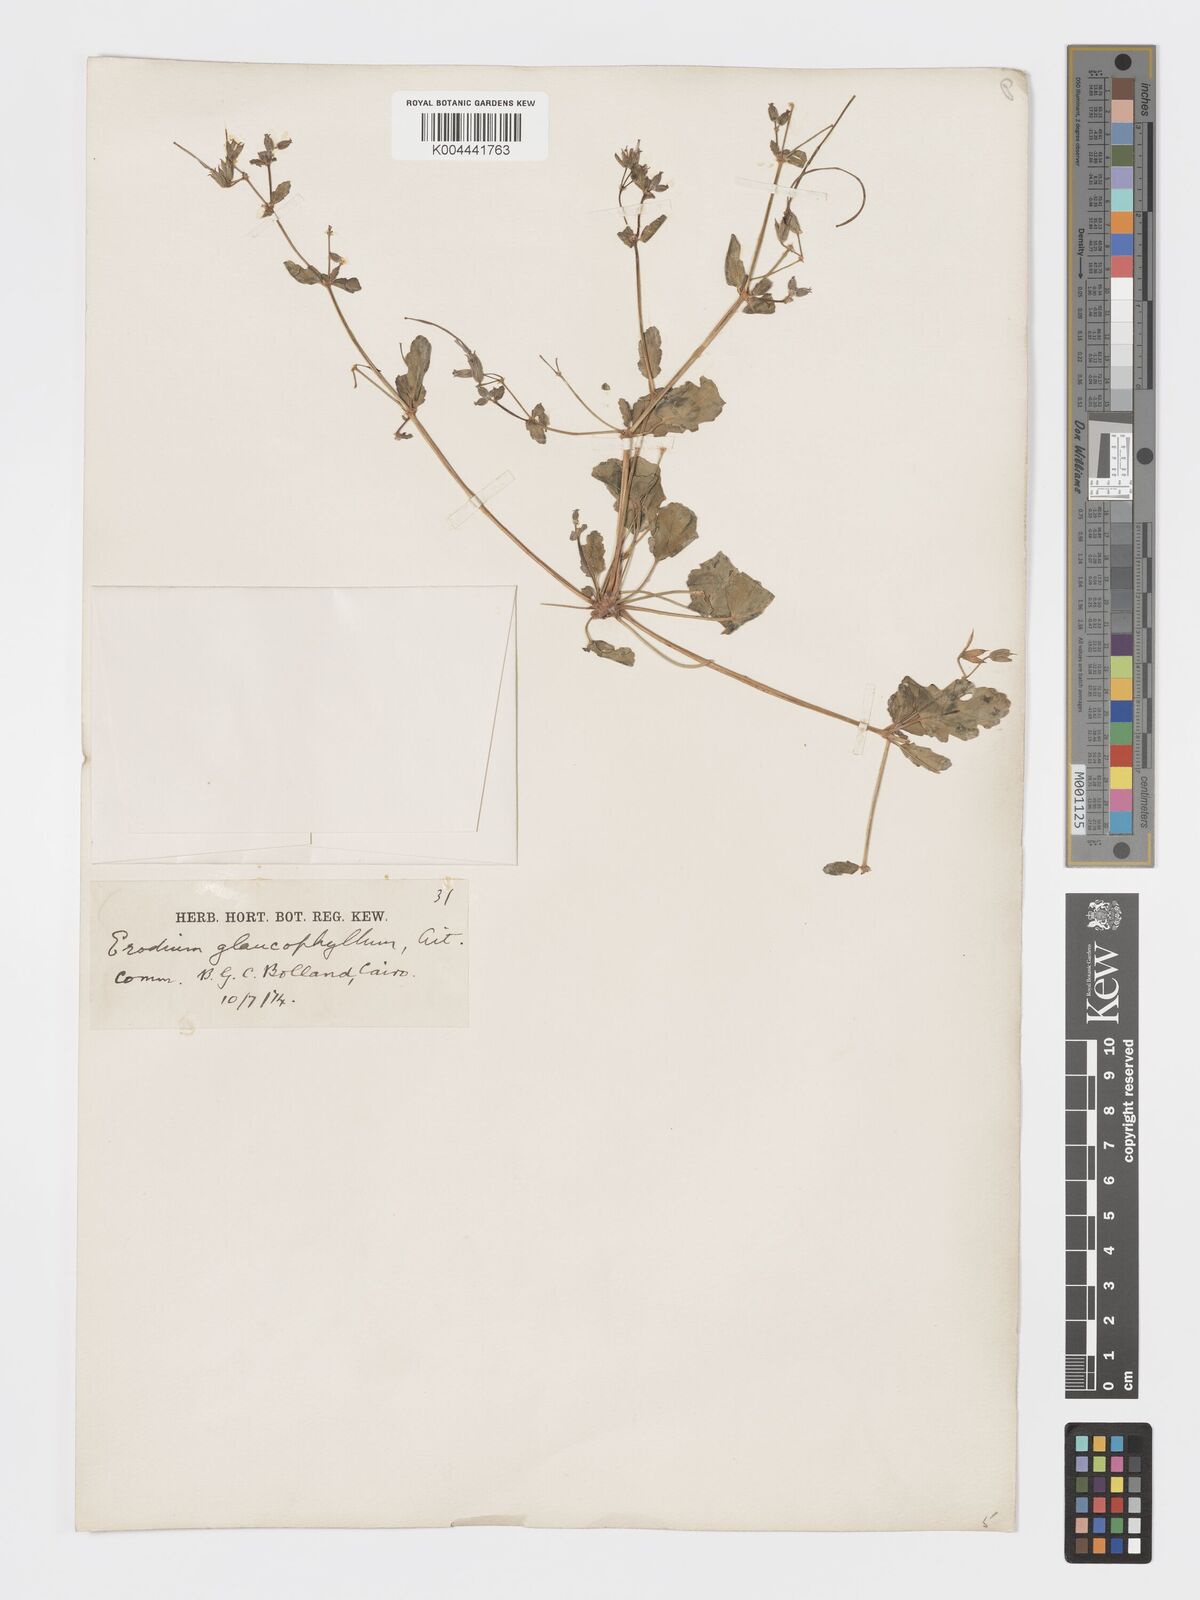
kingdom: Plantae
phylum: Tracheophyta
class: Magnoliopsida
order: Geraniales
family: Geraniaceae
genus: Erodium
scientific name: Erodium glaucophyllum
